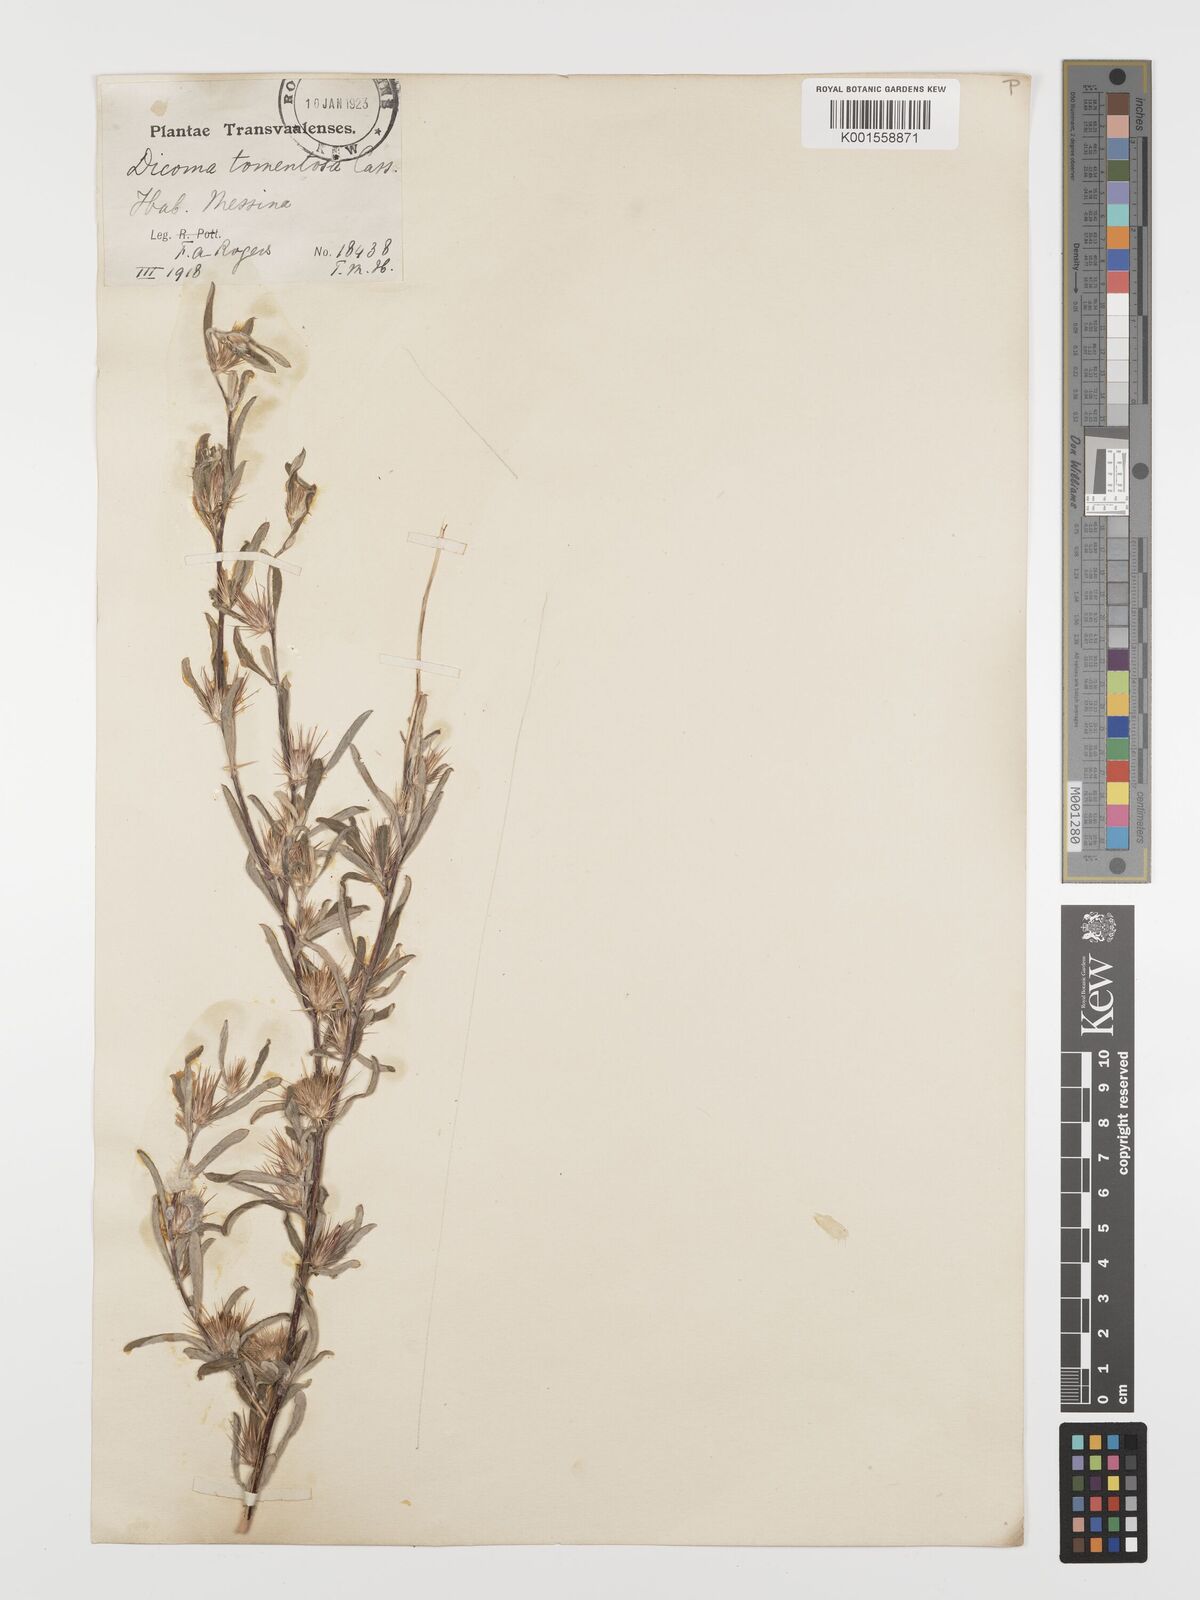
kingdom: Plantae
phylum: Tracheophyta
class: Magnoliopsida
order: Asterales
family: Asteraceae
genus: Dicoma
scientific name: Dicoma tomentosa
